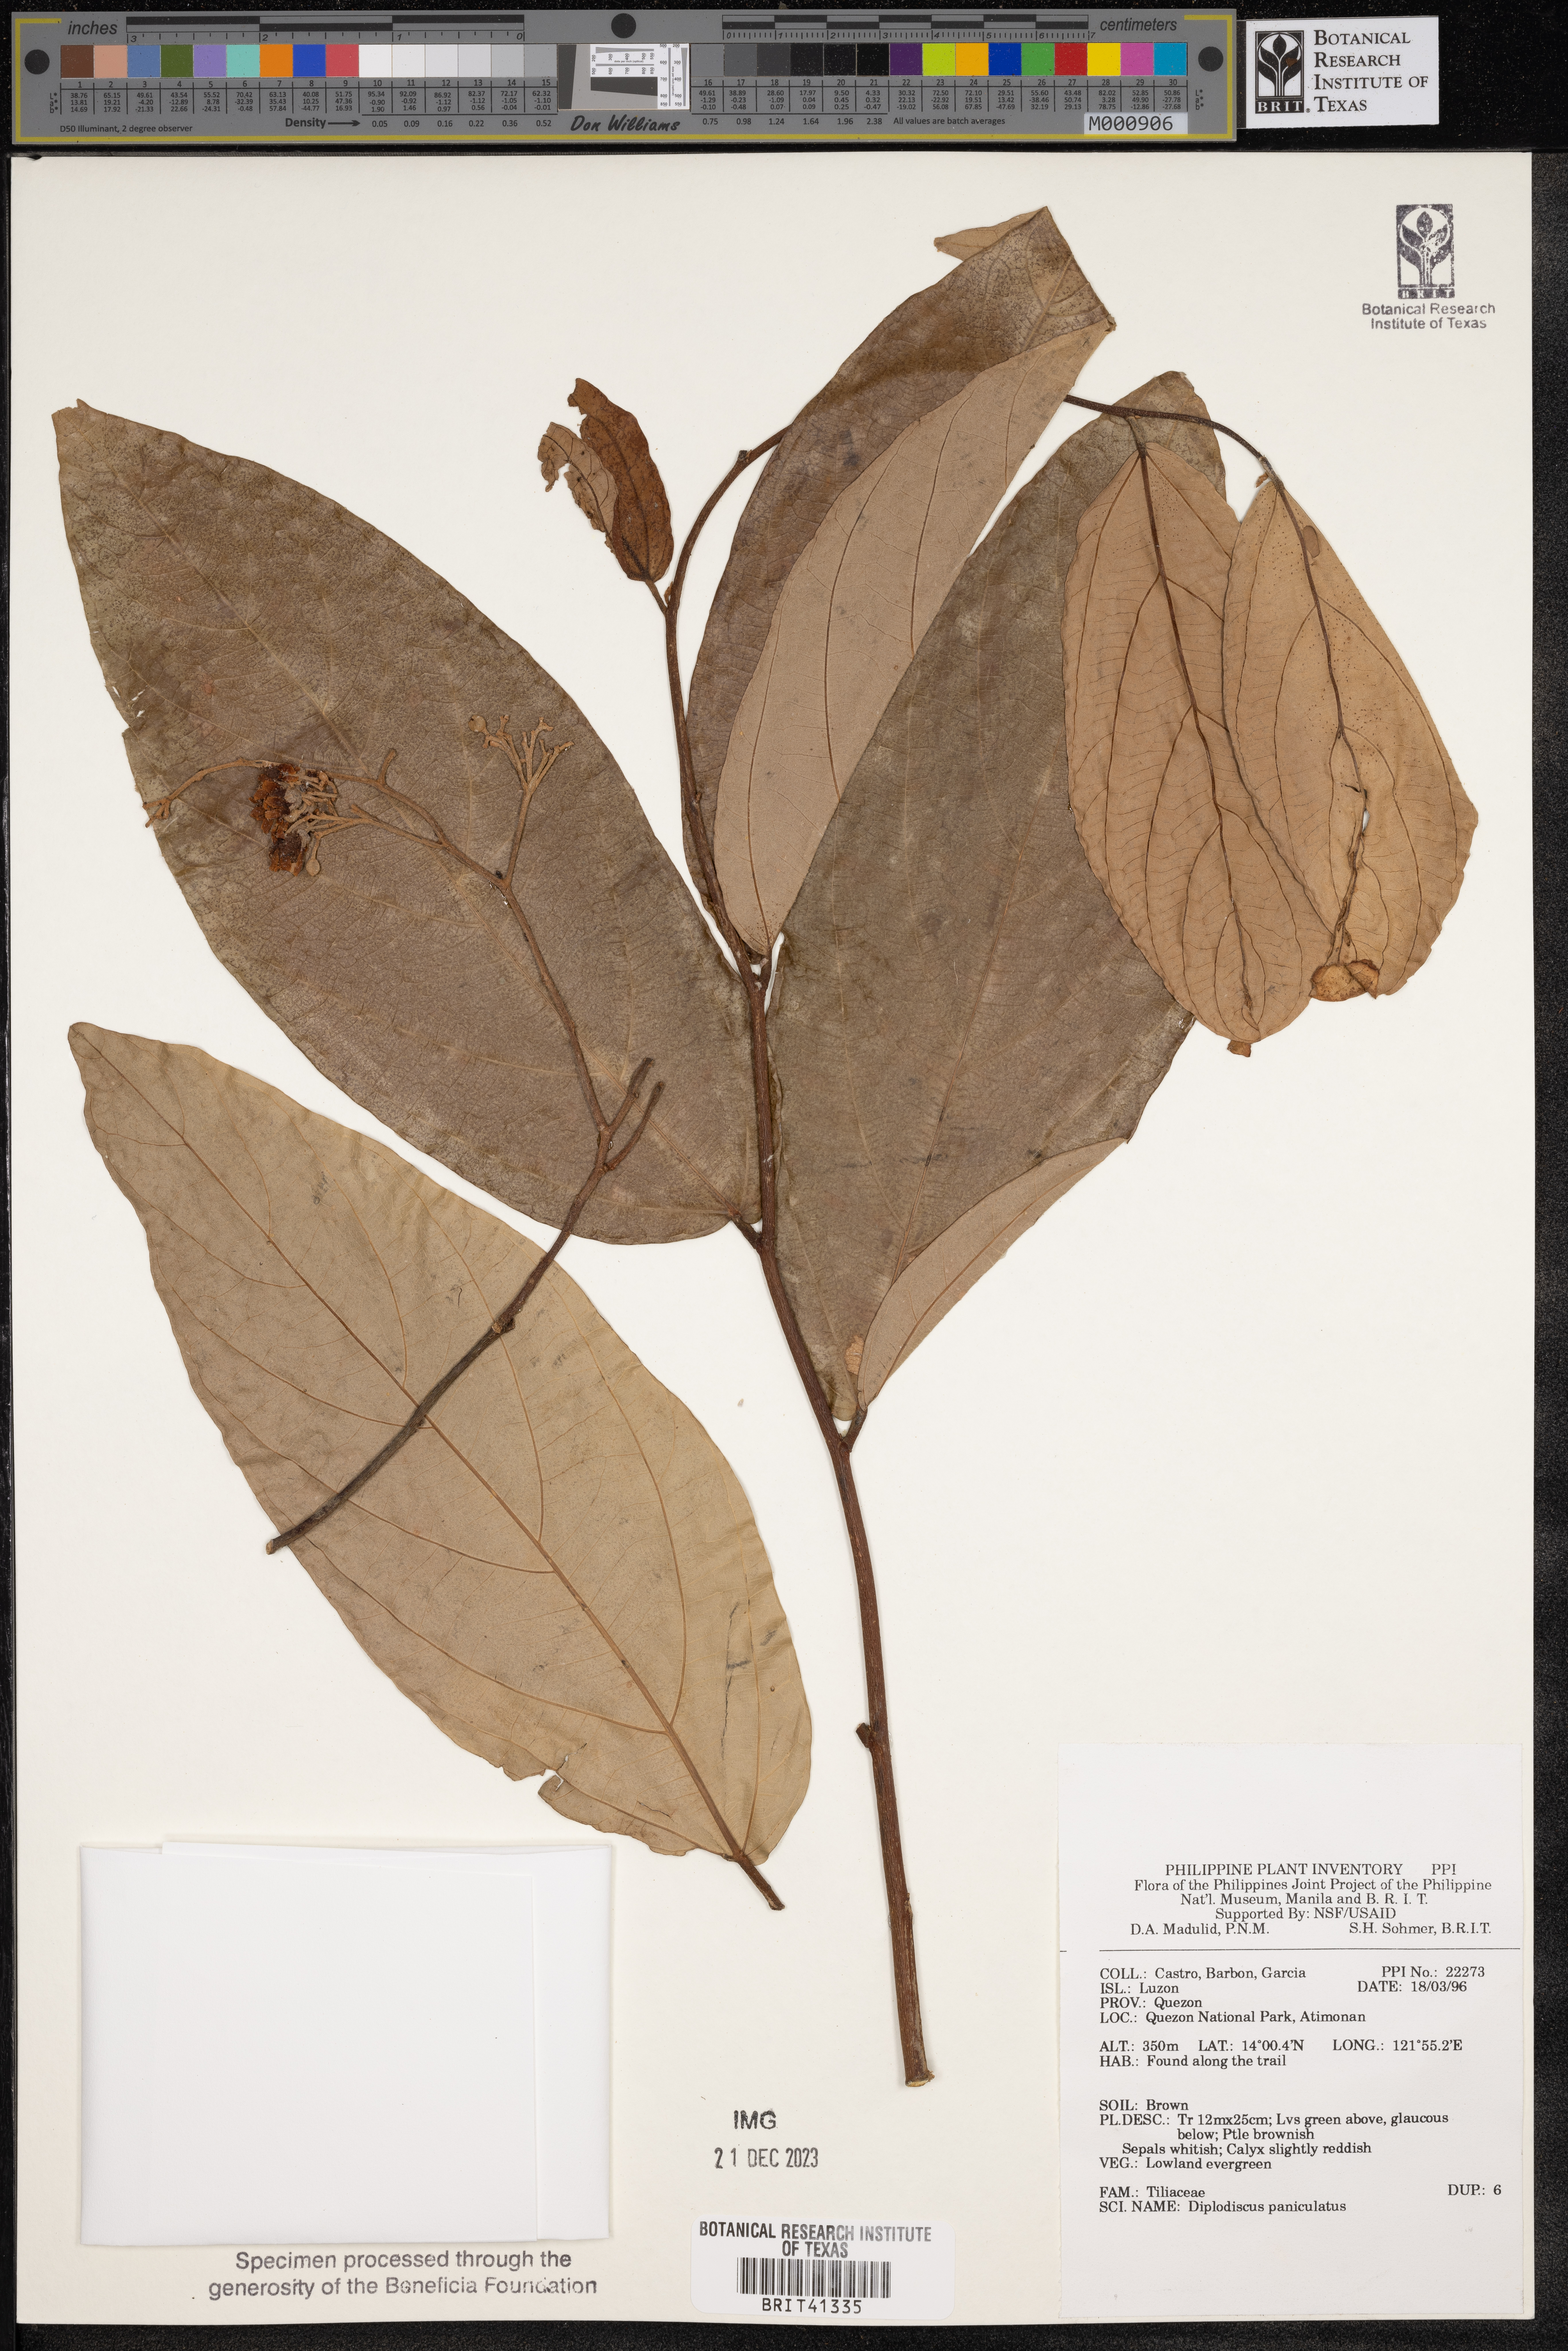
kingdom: Plantae
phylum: Tracheophyta
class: Magnoliopsida
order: Malvales
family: Malvaceae
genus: Diplodiscus
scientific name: Diplodiscus paniculatus
